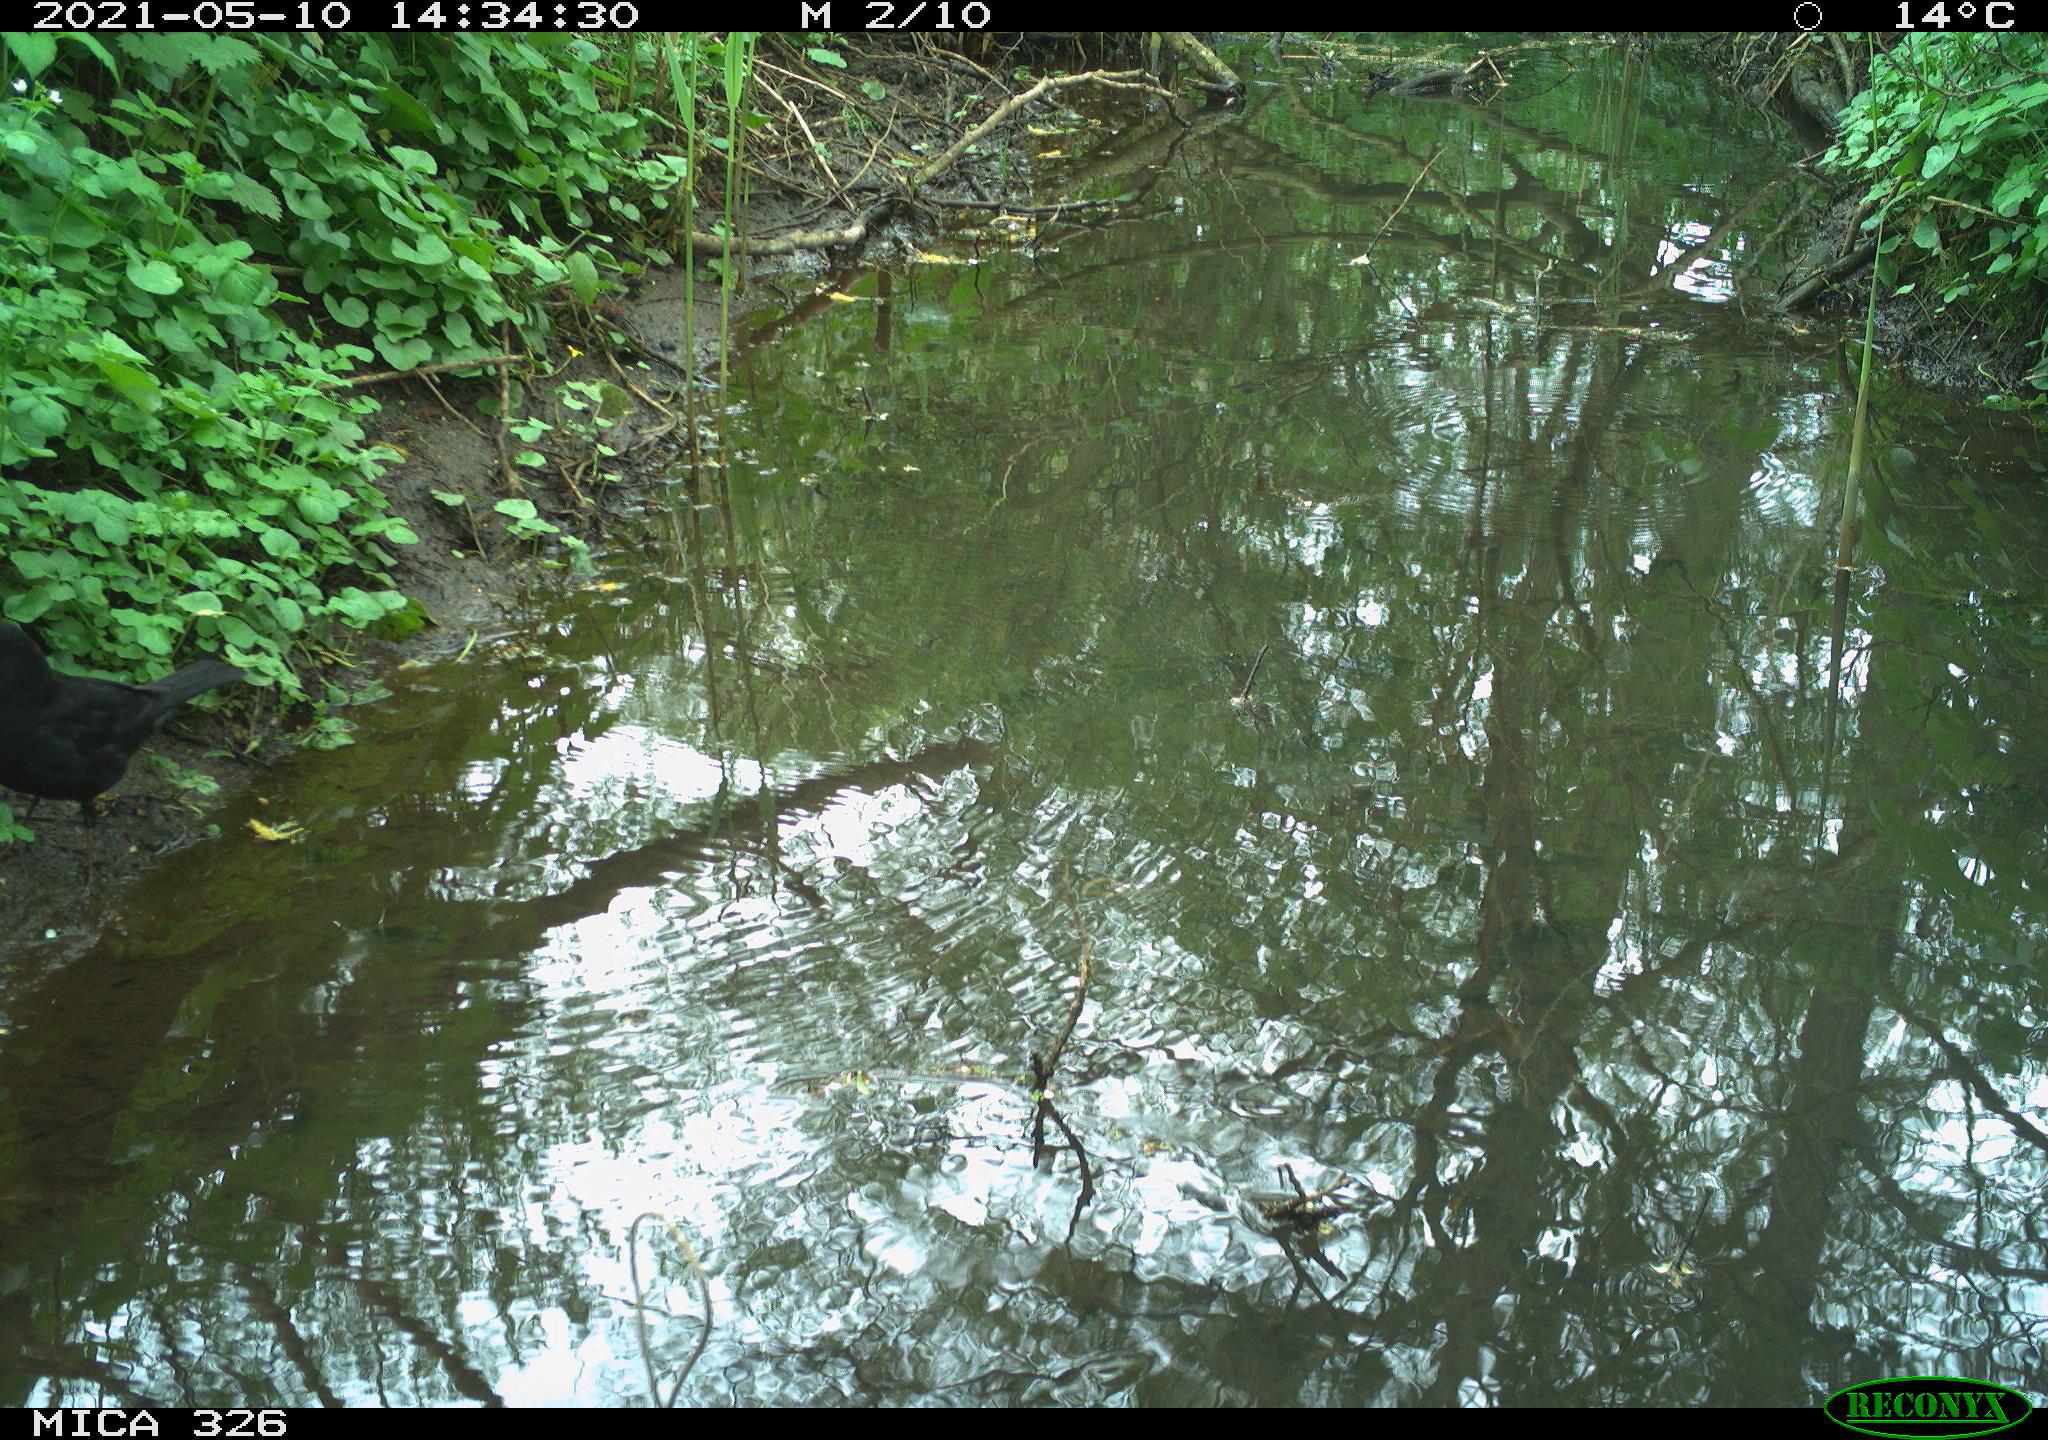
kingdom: Animalia
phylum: Chordata
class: Aves
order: Passeriformes
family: Turdidae
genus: Turdus
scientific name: Turdus merula
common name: Common blackbird
